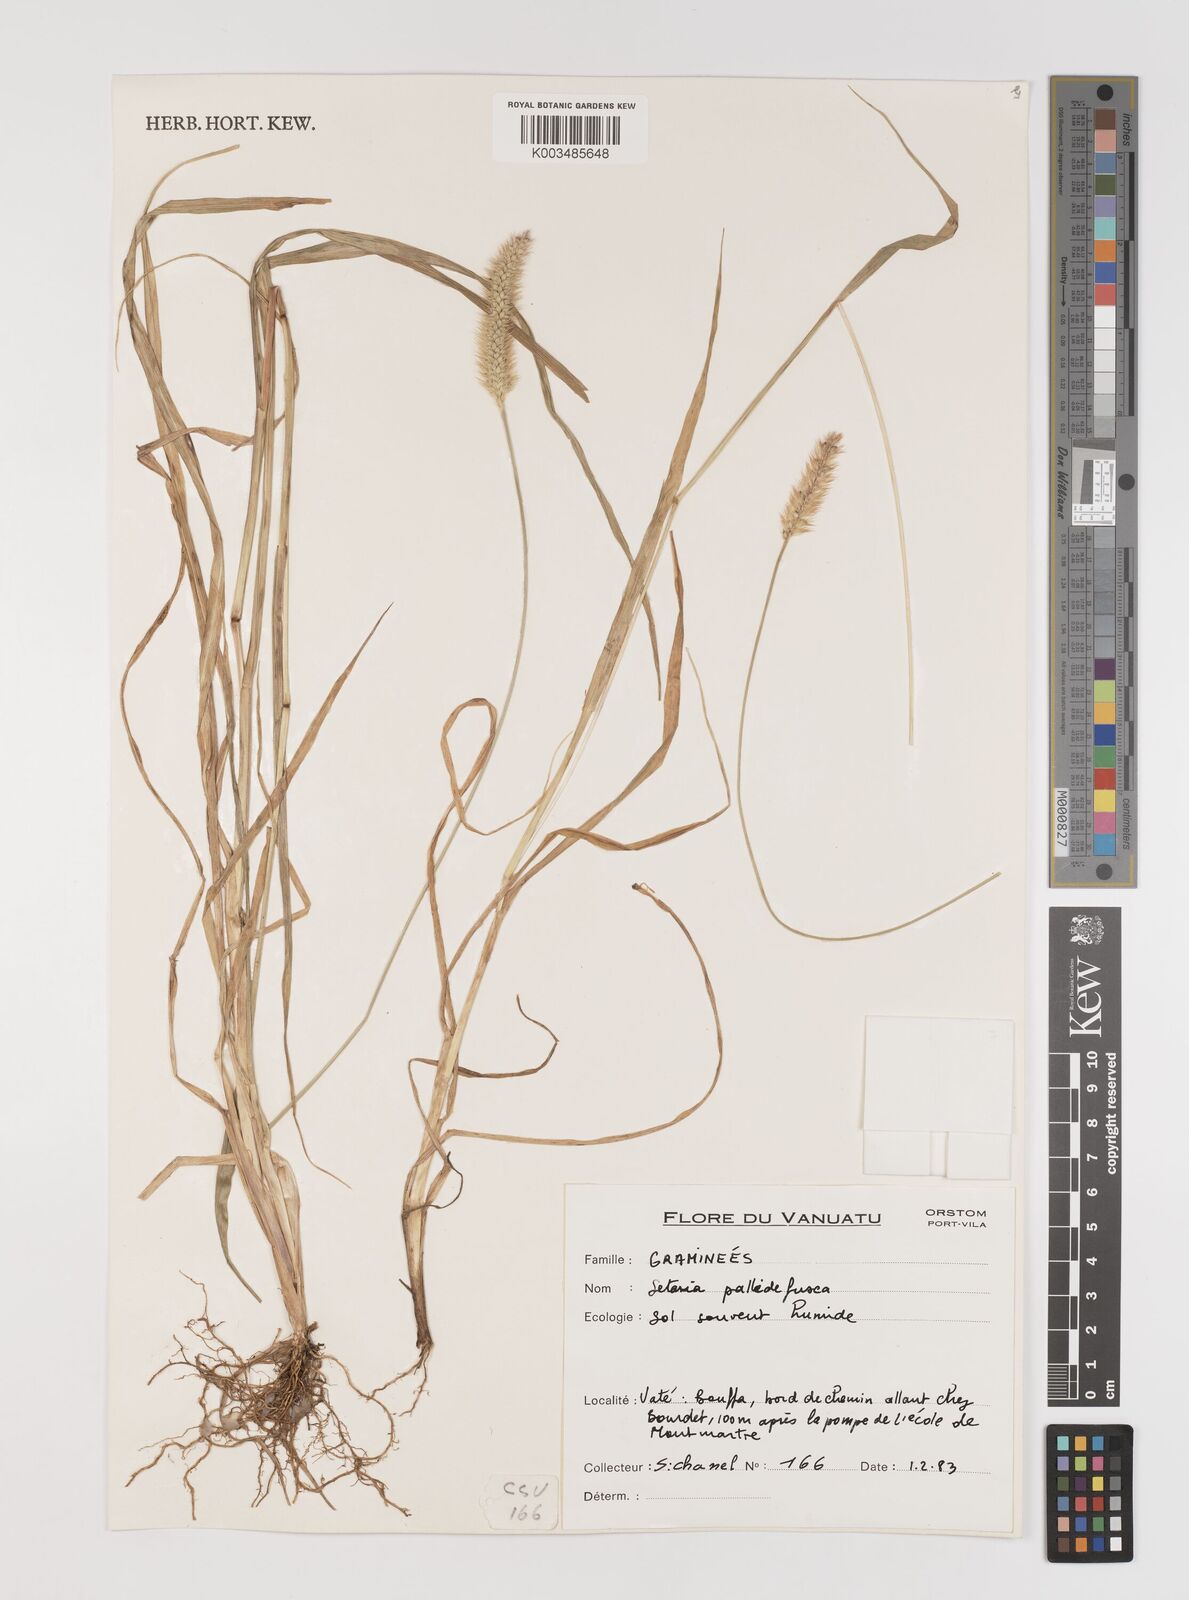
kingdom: Plantae
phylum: Tracheophyta
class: Liliopsida
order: Poales
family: Poaceae
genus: Setaria
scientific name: Setaria pumila
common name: Yellow bristle-grass
